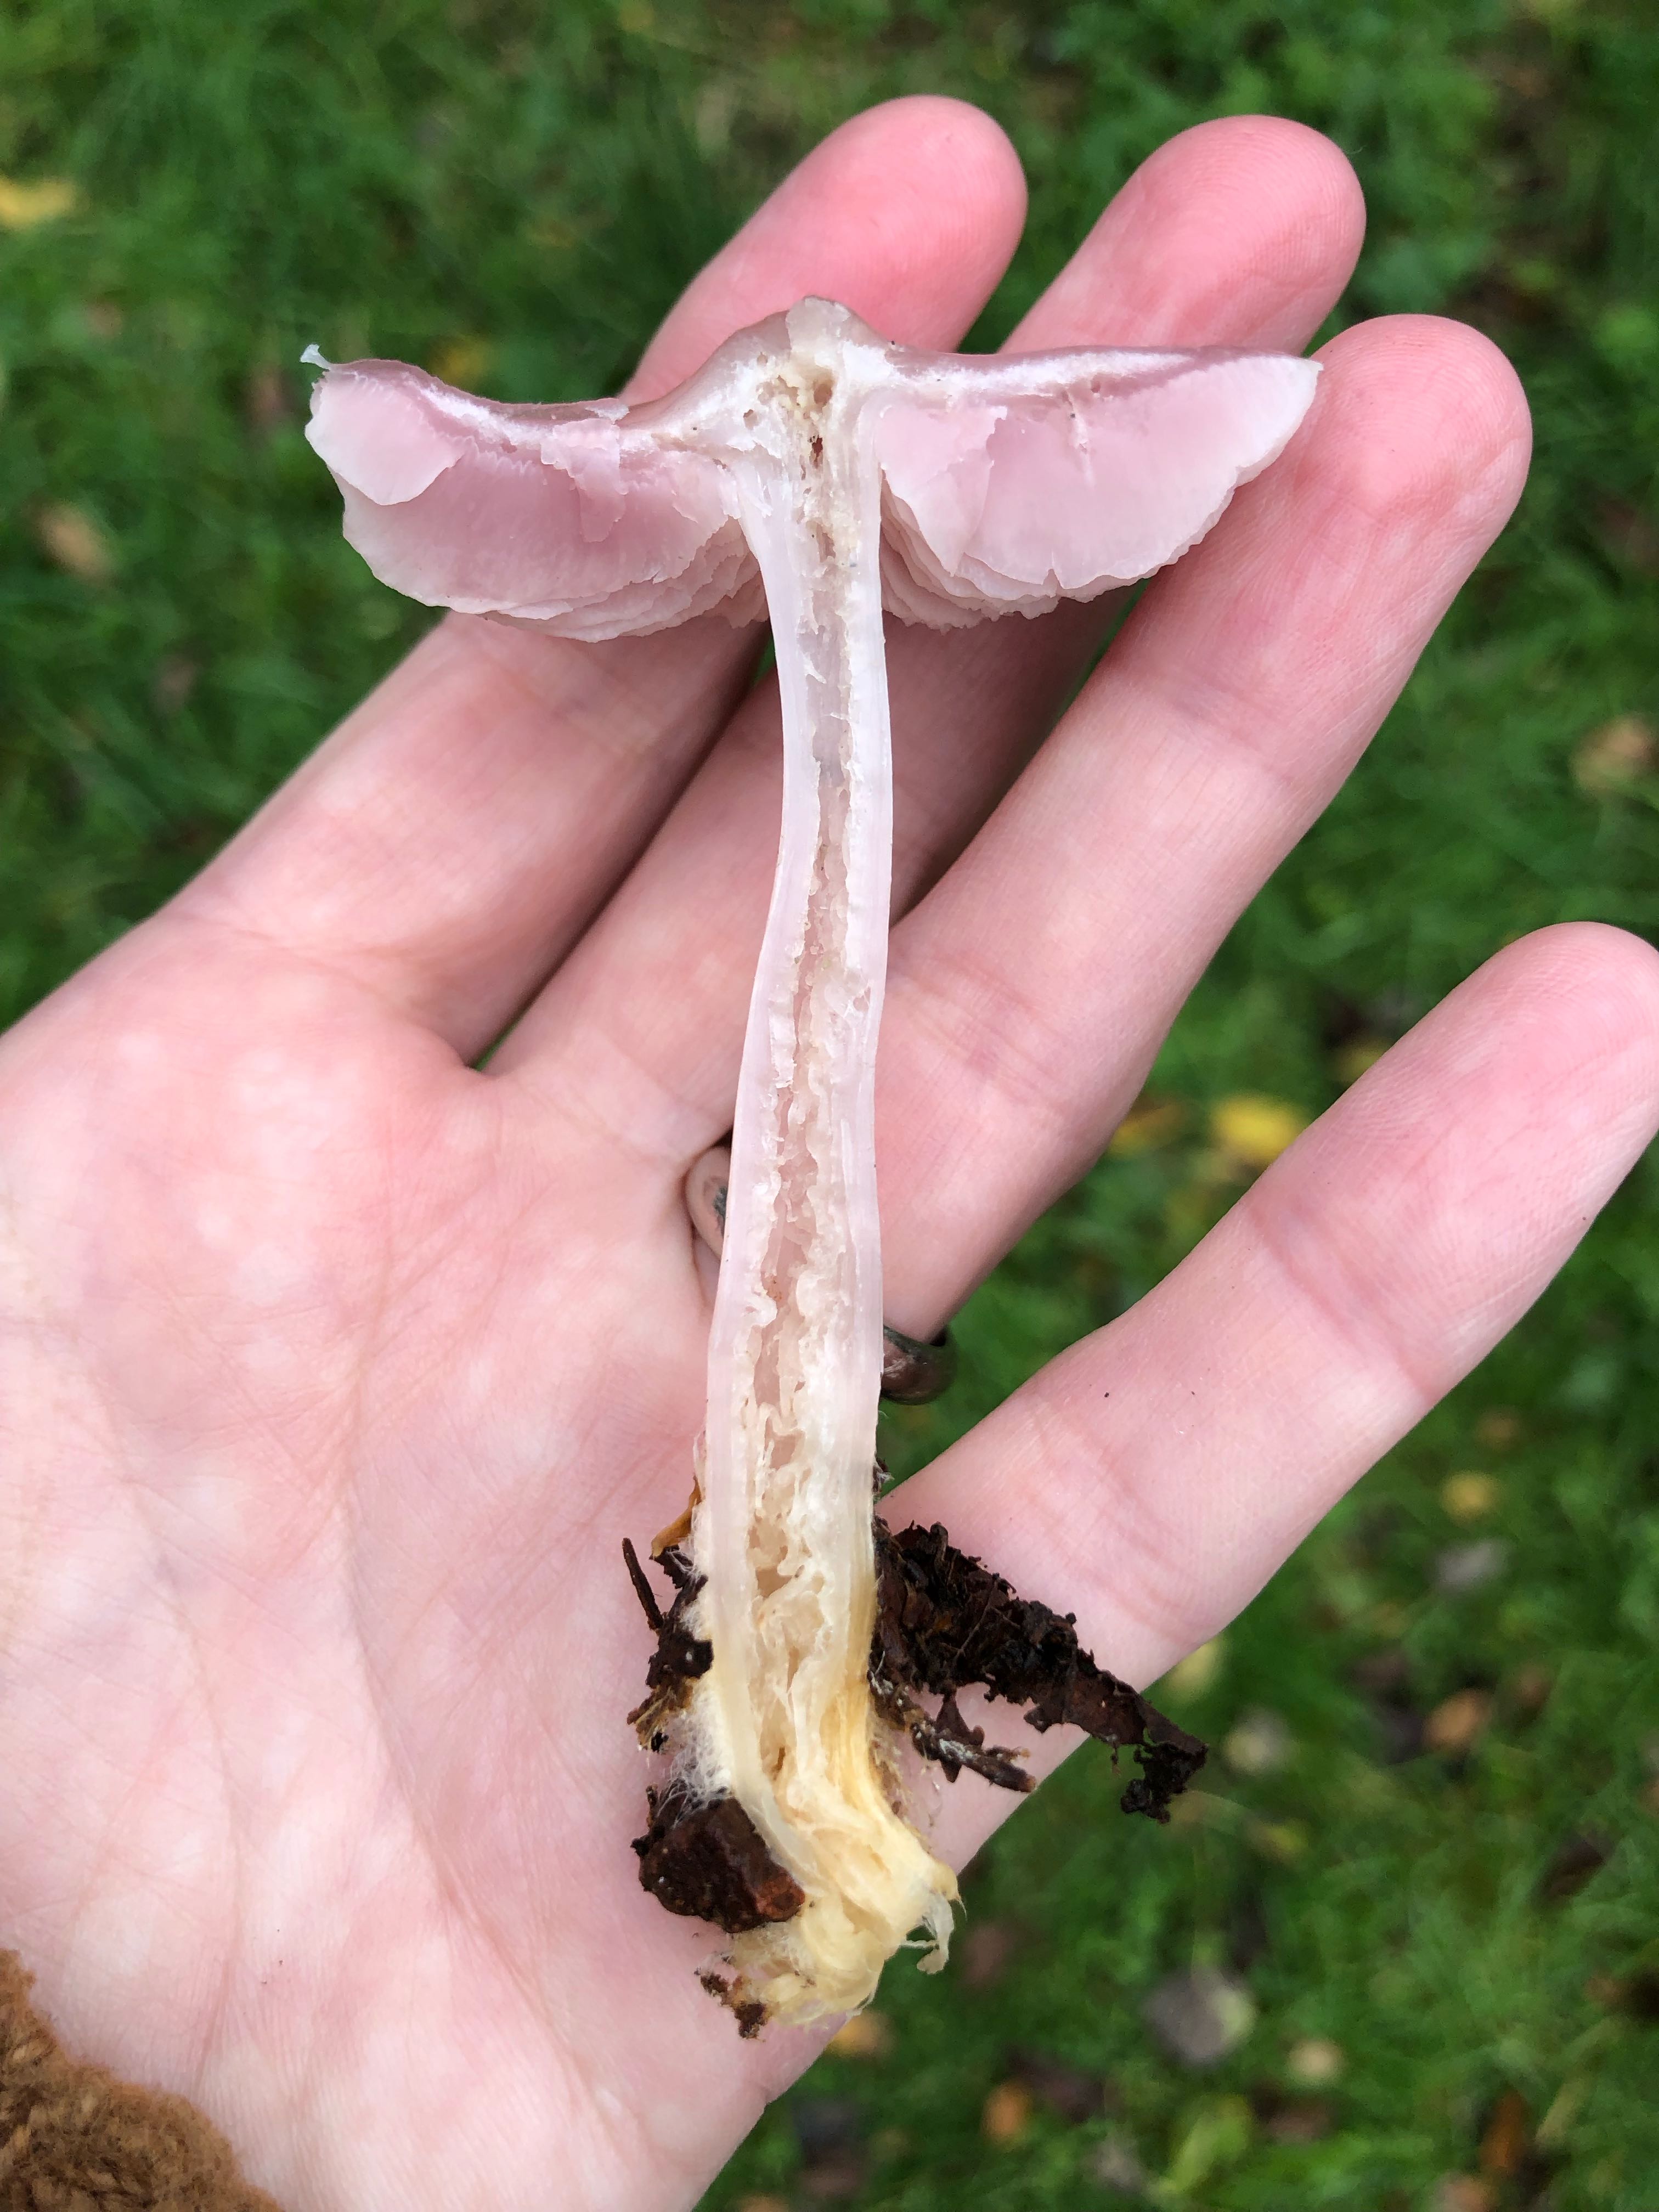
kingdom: Fungi
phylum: Basidiomycota
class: Agaricomycetes
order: Agaricales
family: Mycenaceae
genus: Mycena
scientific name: Mycena rosea
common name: rosa huesvamp
